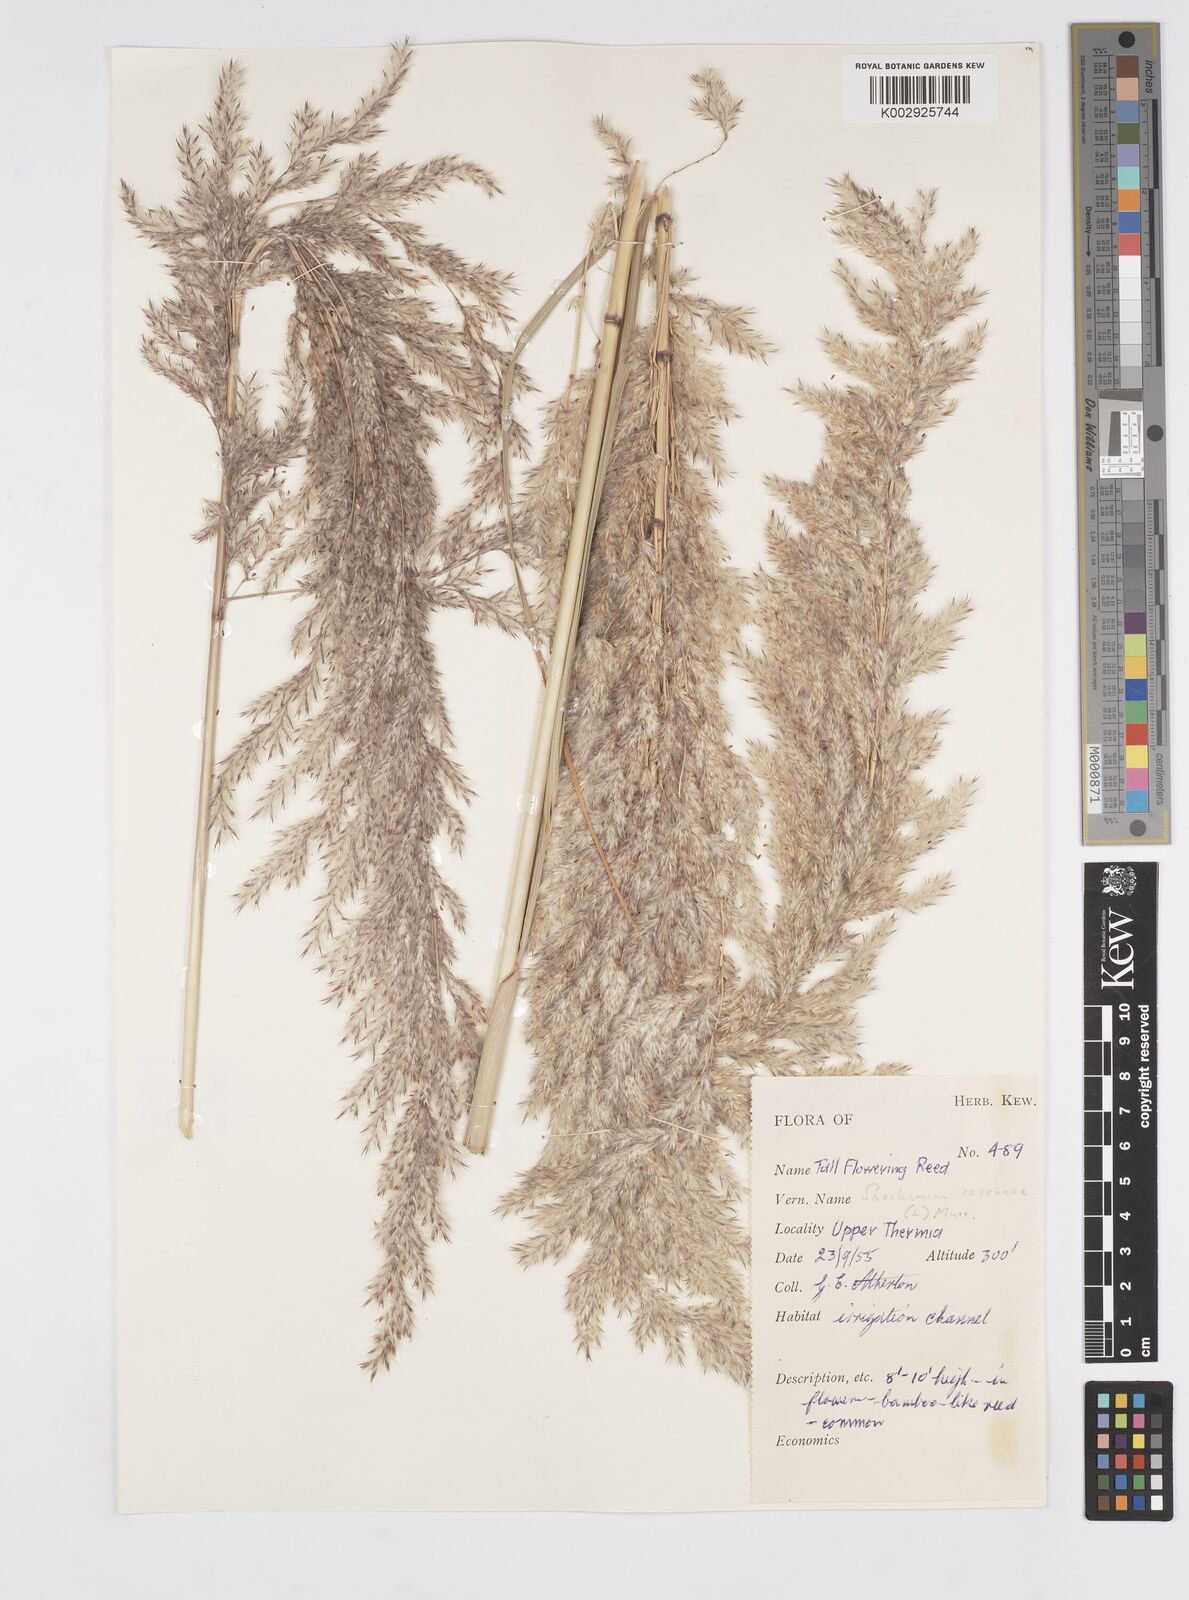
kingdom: Plantae
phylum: Tracheophyta
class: Liliopsida
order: Poales
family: Poaceae
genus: Tripidium
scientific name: Tripidium ravennae
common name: Ravenna grass
